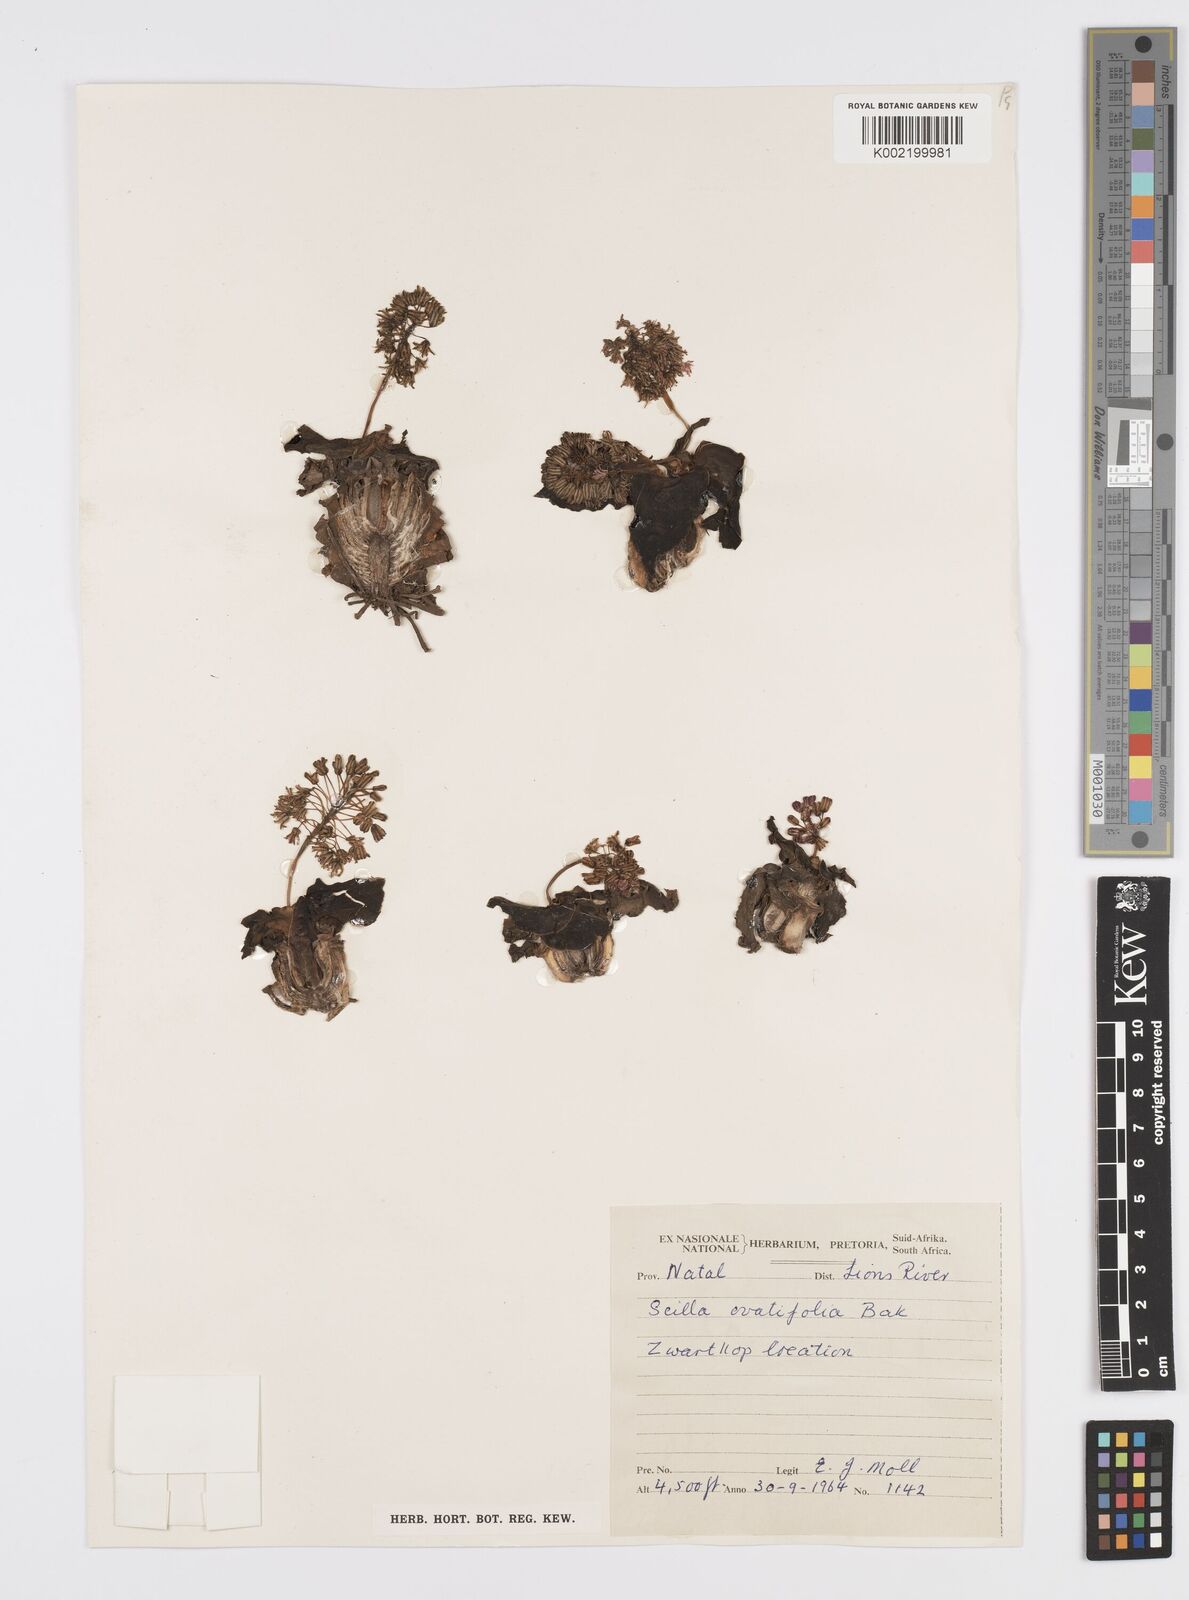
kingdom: Plantae
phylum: Tracheophyta
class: Liliopsida
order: Asparagales
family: Asparagaceae
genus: Ledebouria
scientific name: Ledebouria ovatifolia
